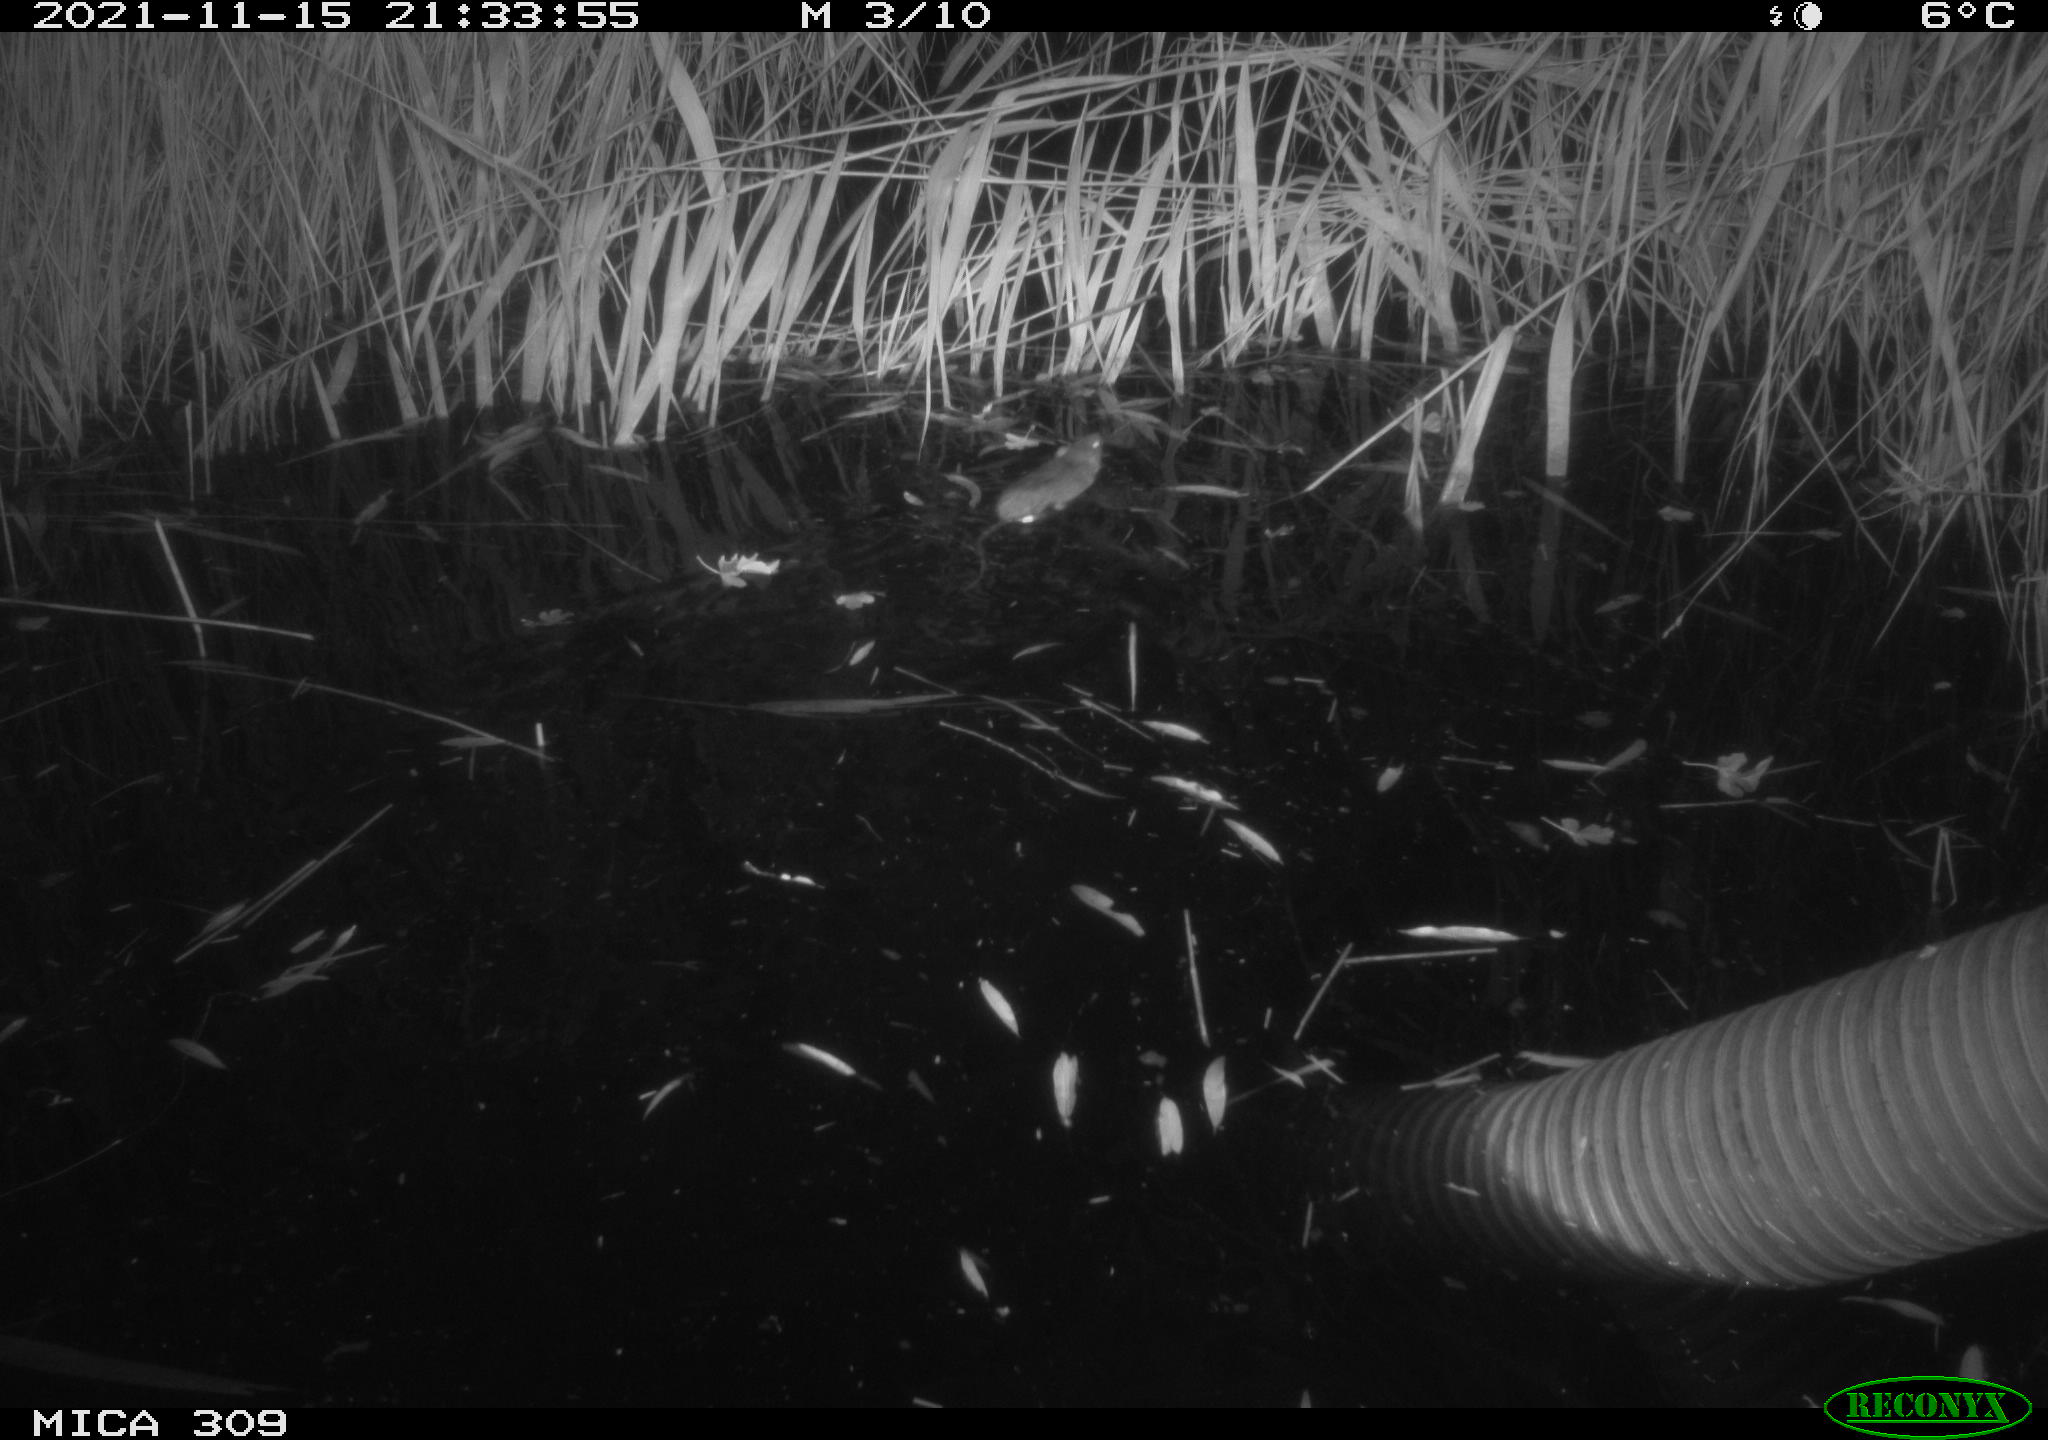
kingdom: Animalia
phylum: Chordata
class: Mammalia
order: Rodentia
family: Muridae
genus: Rattus
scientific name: Rattus norvegicus
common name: Brown rat
